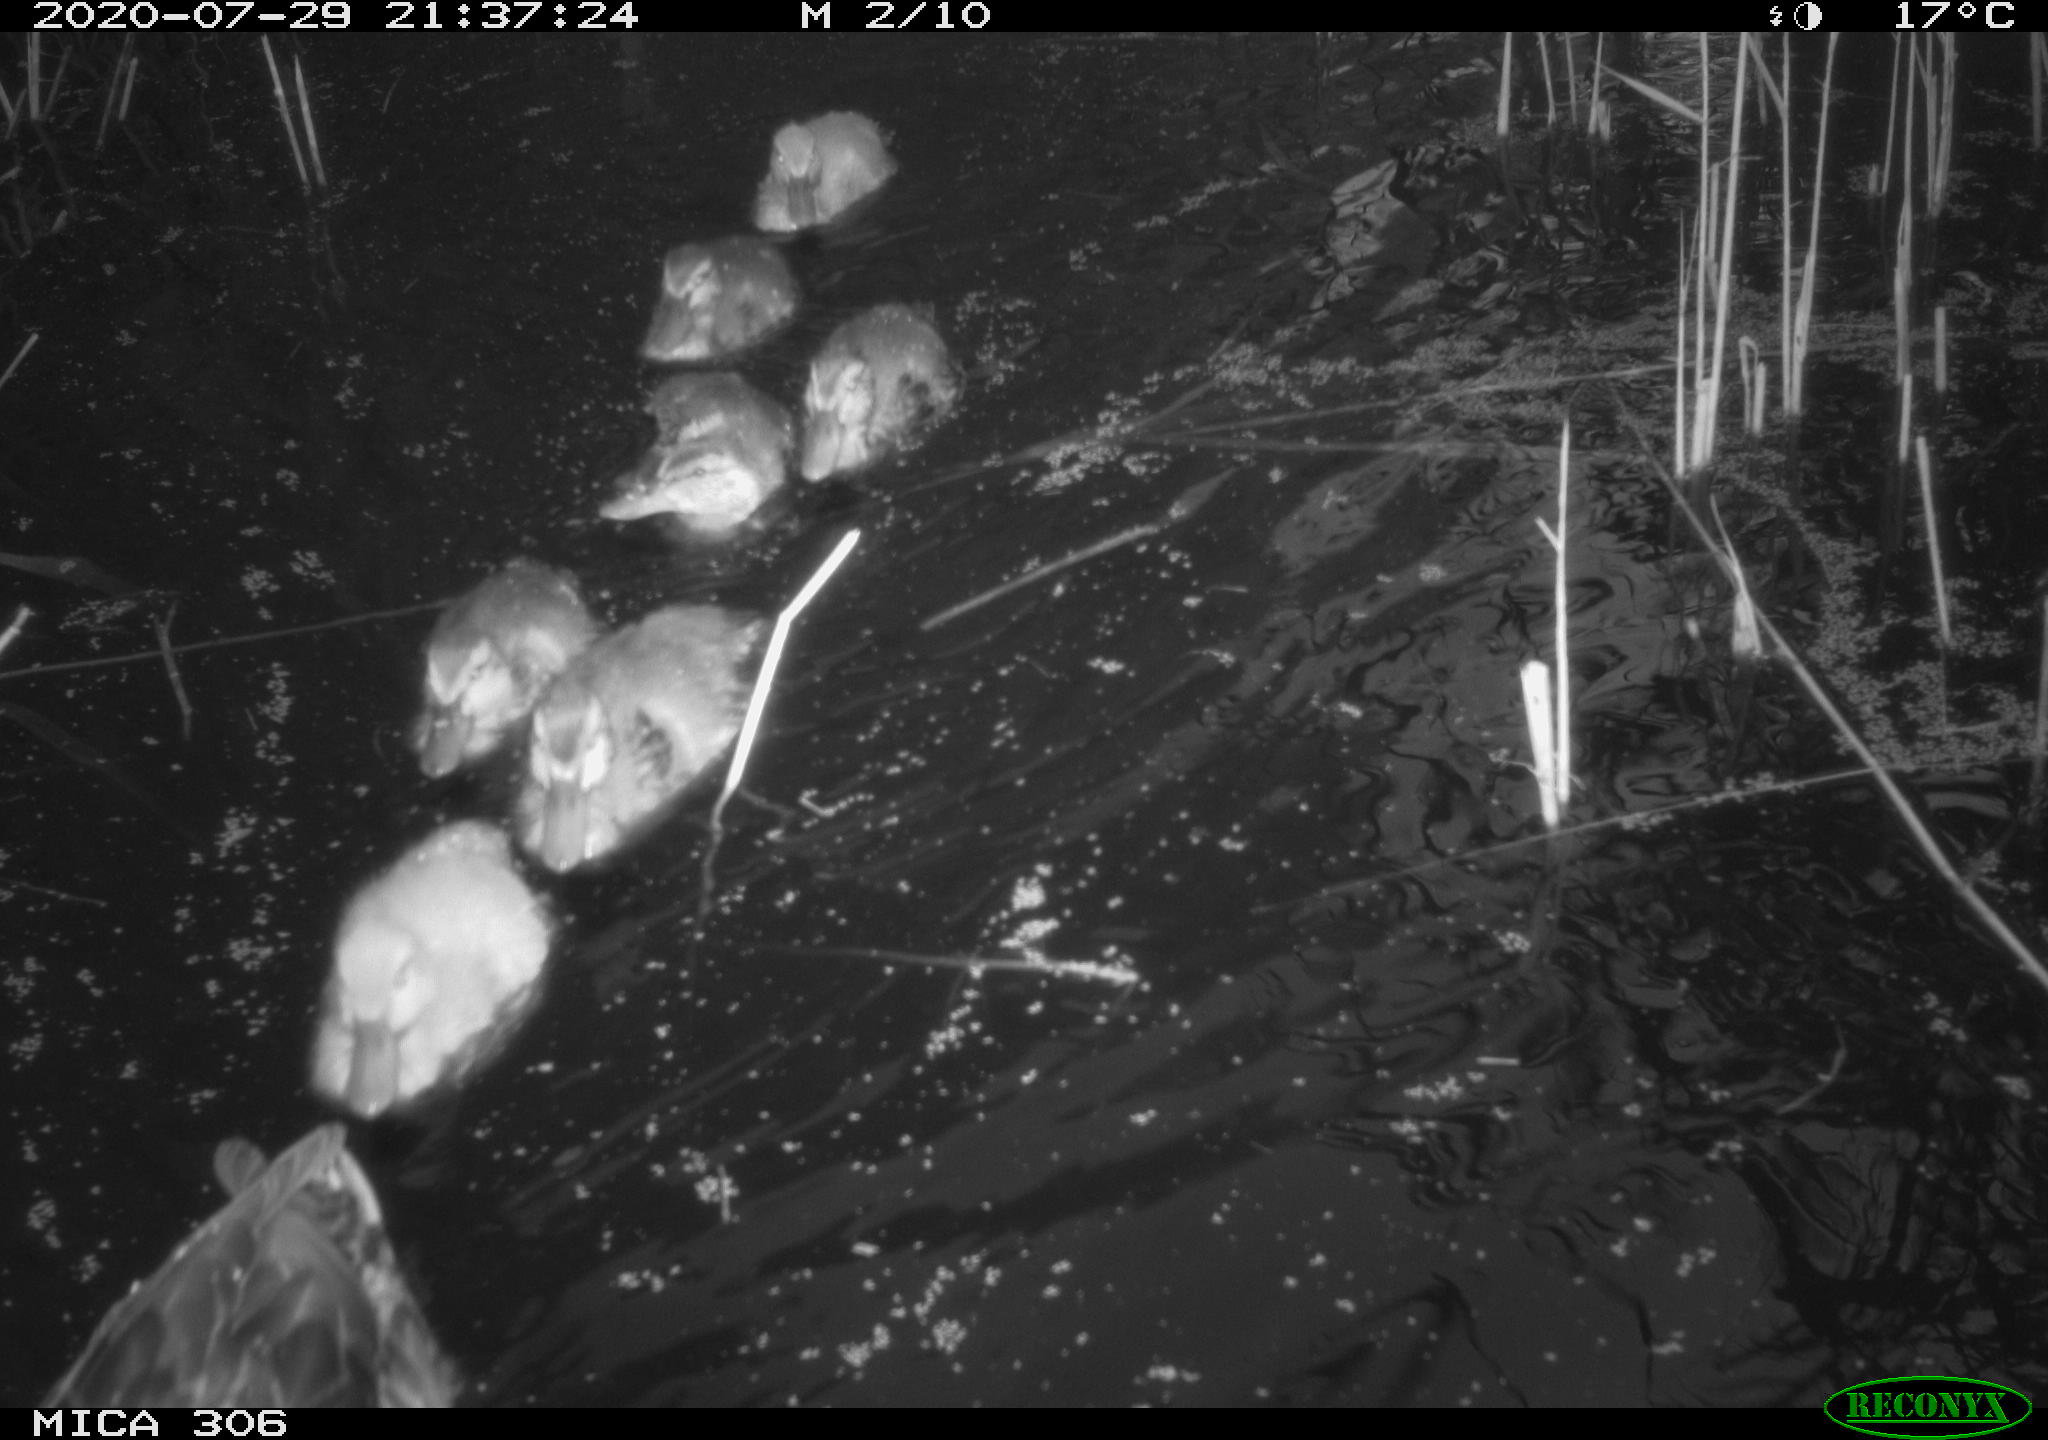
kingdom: Animalia
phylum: Chordata
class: Aves
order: Anseriformes
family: Anatidae
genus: Anas
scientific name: Anas platyrhynchos
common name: Mallard
